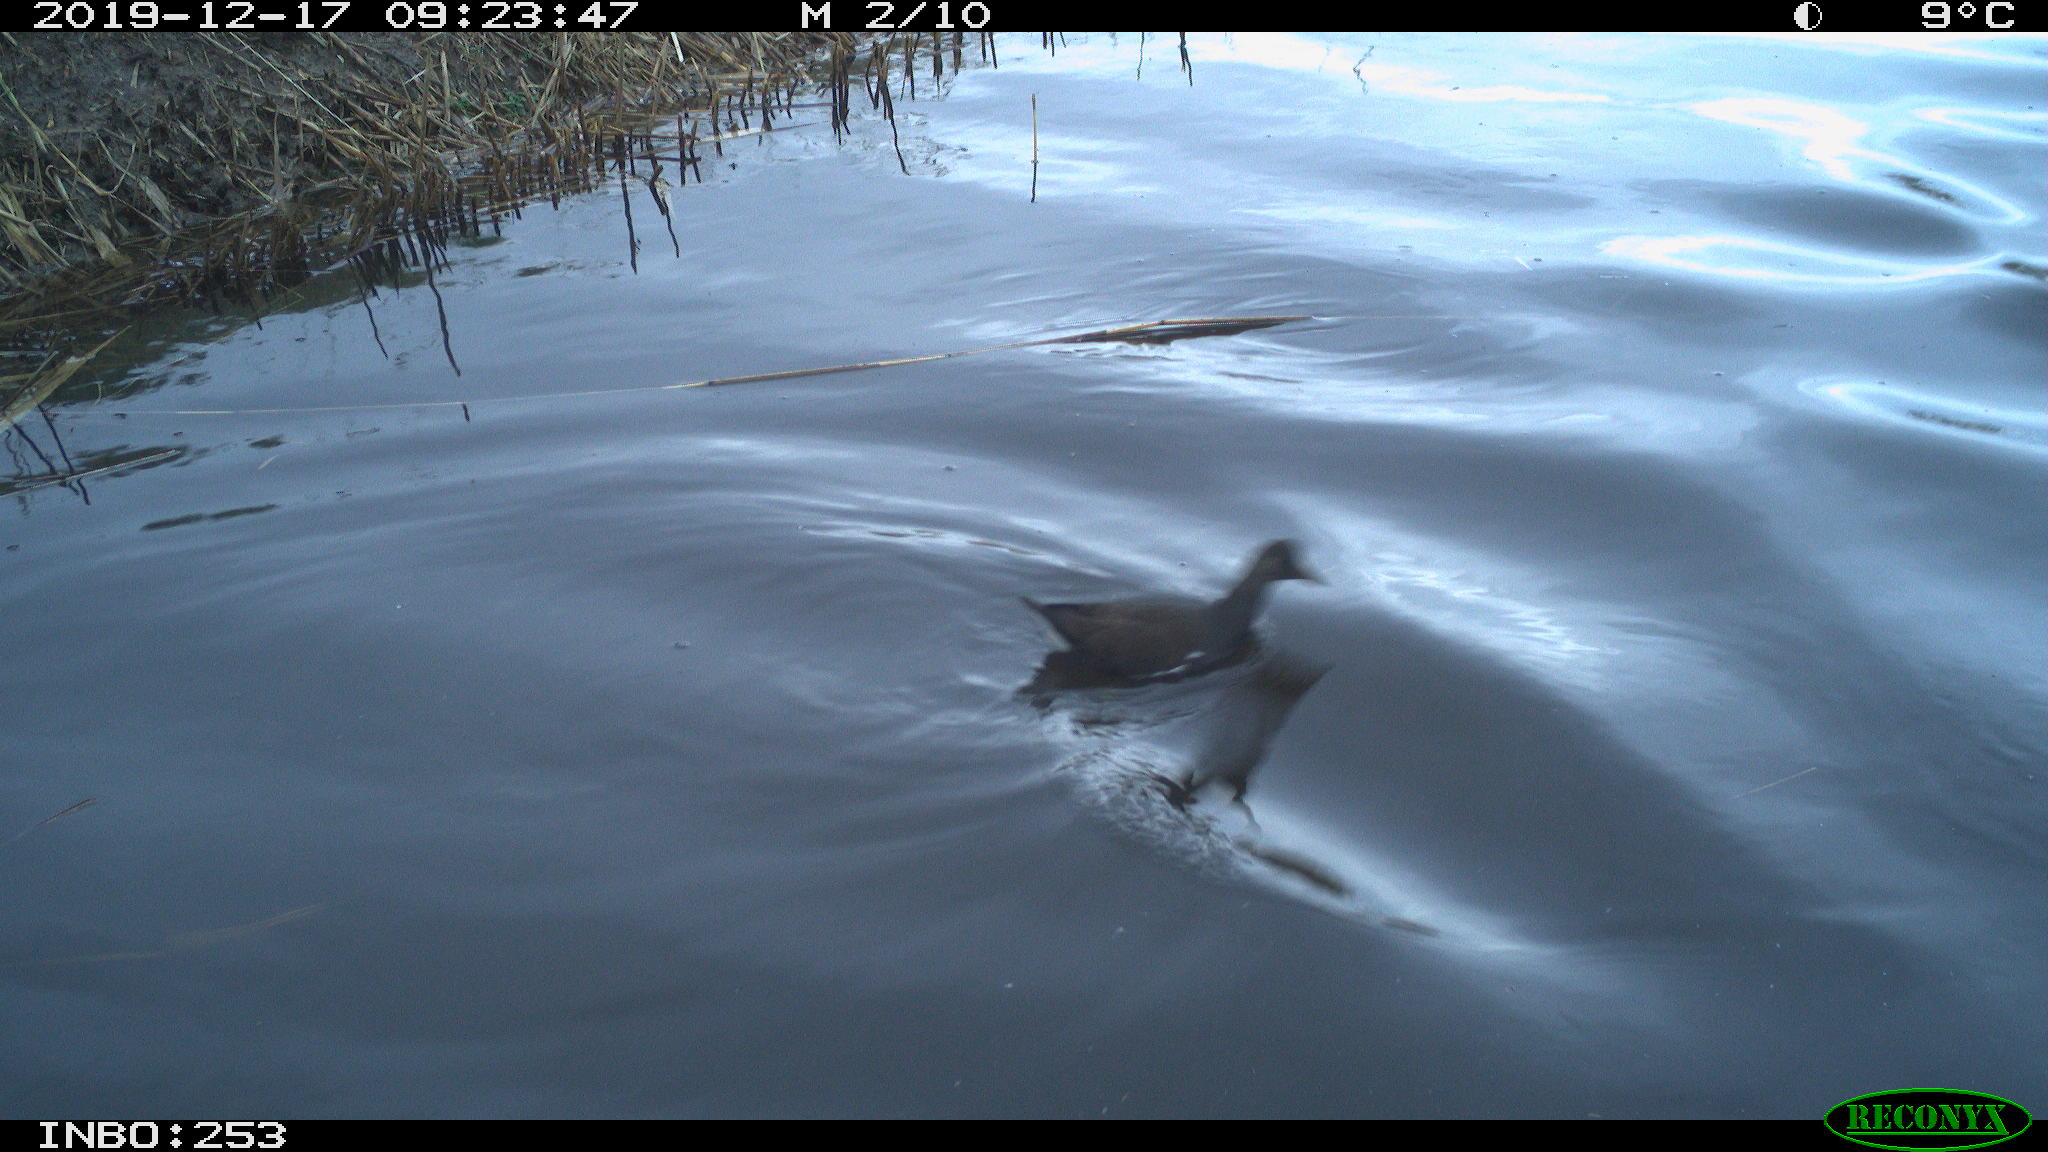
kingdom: Animalia
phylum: Chordata
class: Aves
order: Gruiformes
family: Rallidae
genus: Gallinula
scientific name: Gallinula chloropus
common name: Common moorhen
